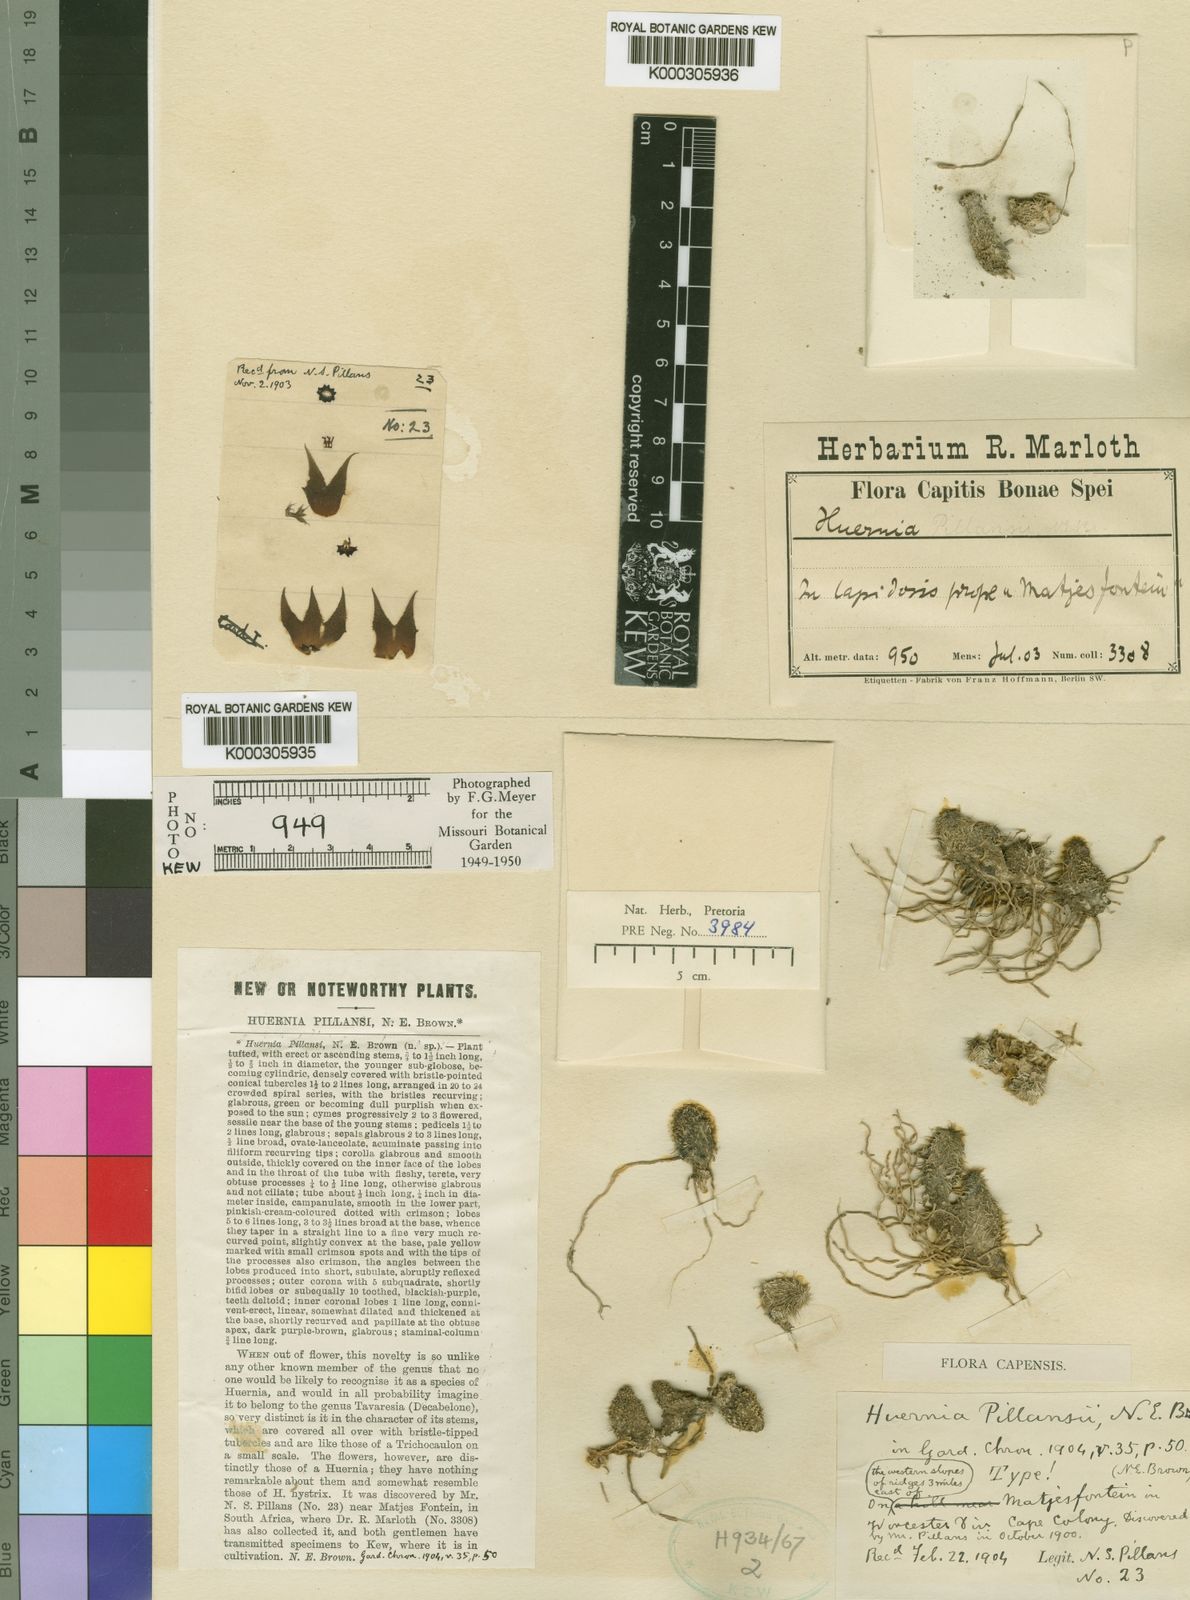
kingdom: Plantae
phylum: Tracheophyta
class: Magnoliopsida
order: Gentianales
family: Apocynaceae
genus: Ceropegia
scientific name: Ceropegia pillansii
